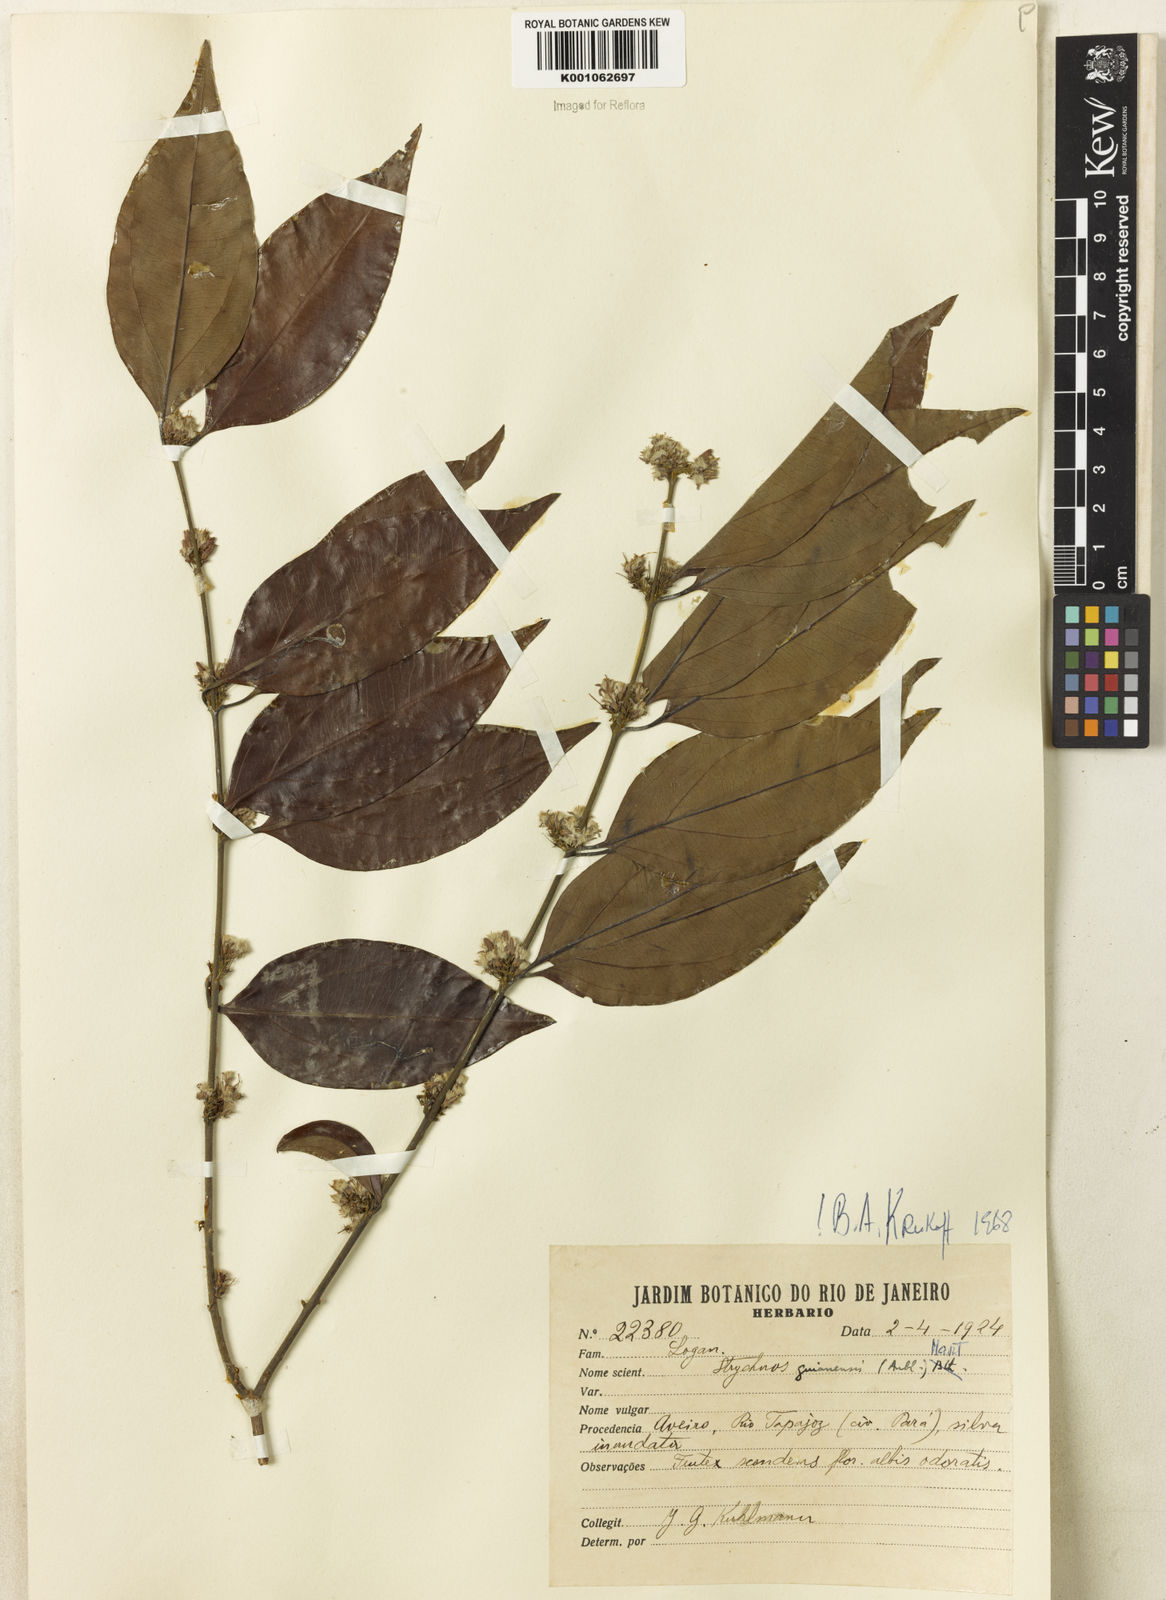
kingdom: Plantae
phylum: Tracheophyta
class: Magnoliopsida
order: Gentianales
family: Loganiaceae
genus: Strychnos
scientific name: Strychnos guianensis
